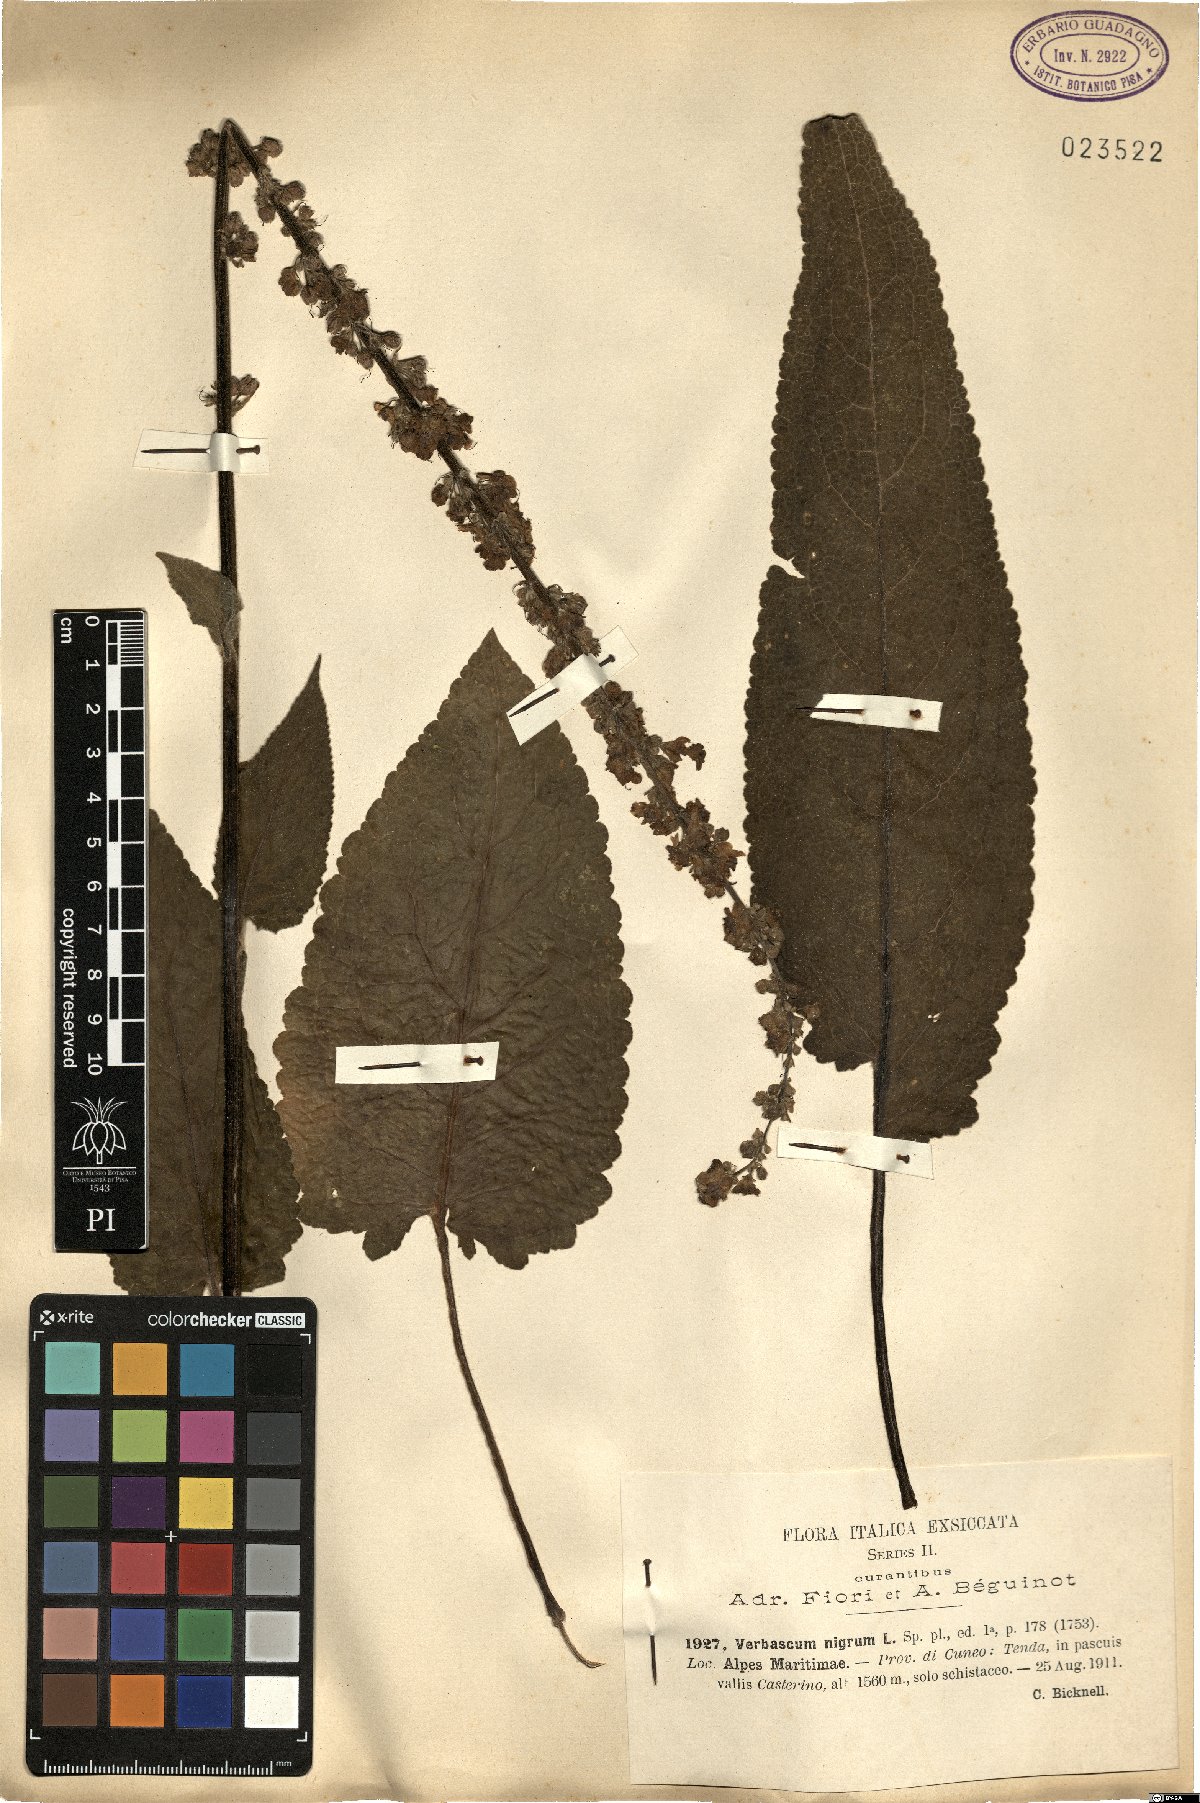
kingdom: Plantae
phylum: Tracheophyta
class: Magnoliopsida
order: Lamiales
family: Scrophulariaceae
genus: Verbascum
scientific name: Verbascum nigrum
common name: Dark mullein
